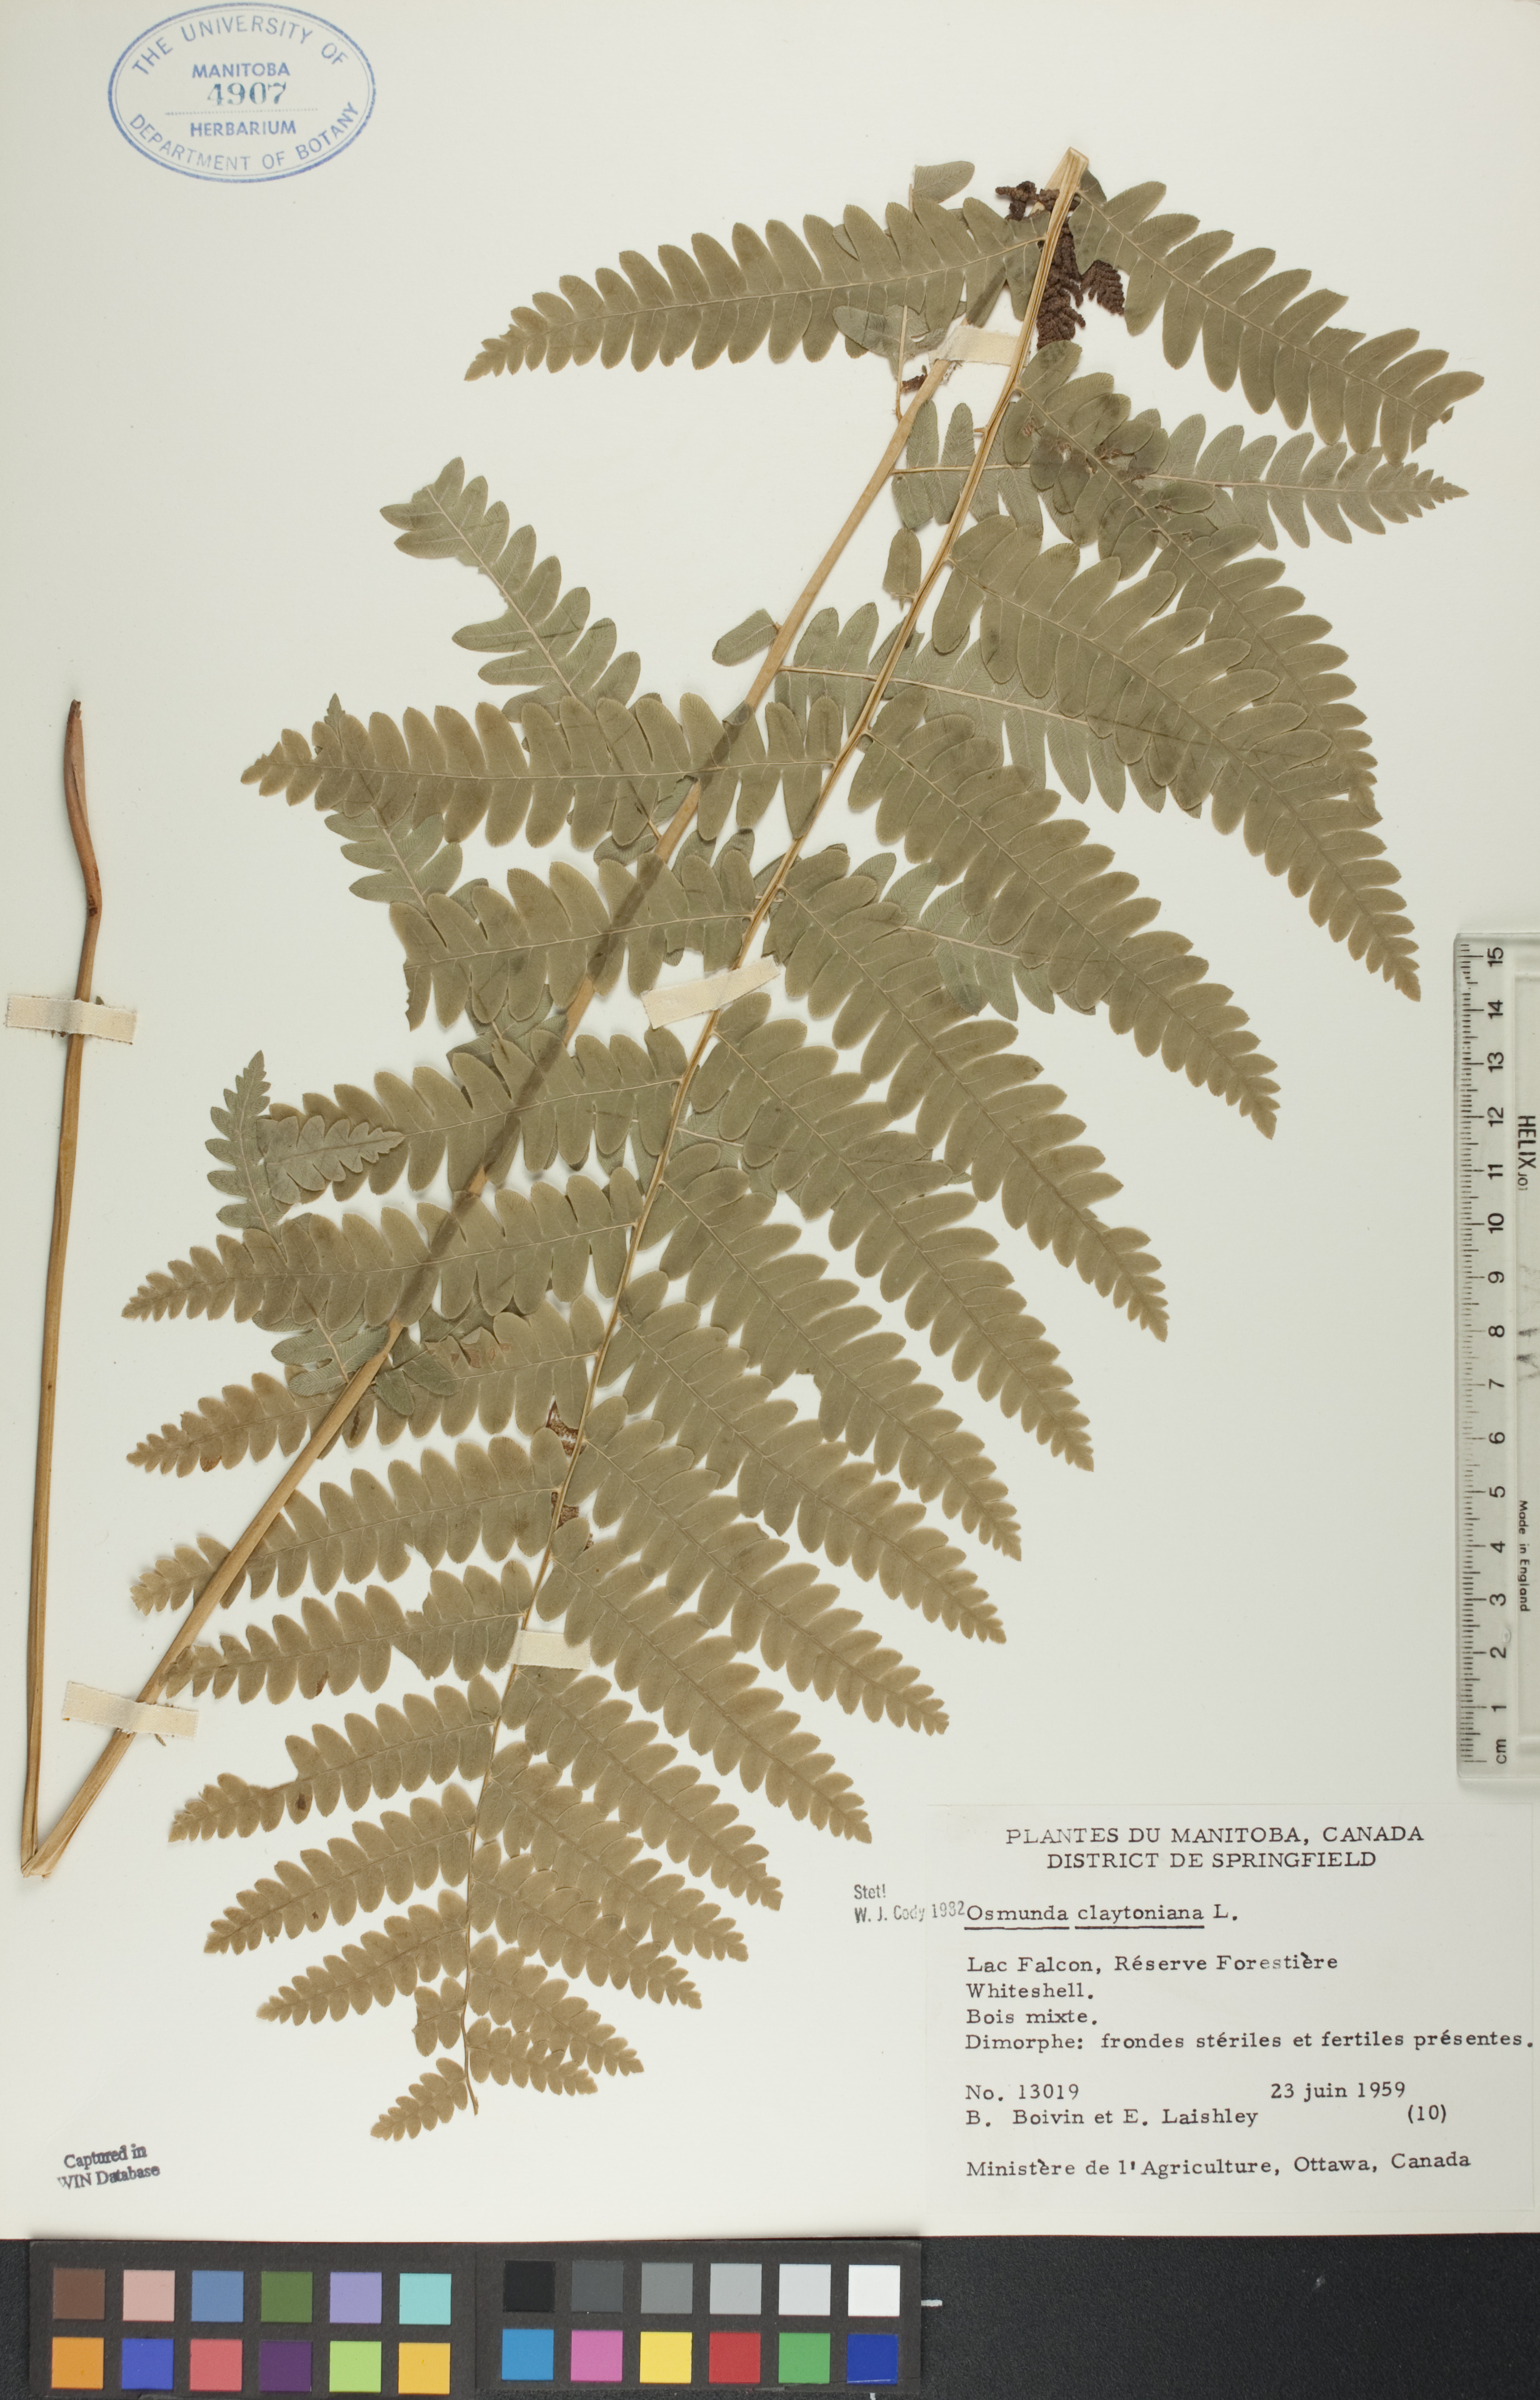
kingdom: Plantae
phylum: Tracheophyta
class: Polypodiopsida
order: Osmundales
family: Osmundaceae
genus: Claytosmunda
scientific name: Claytosmunda claytoniana
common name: Clayton's fern
